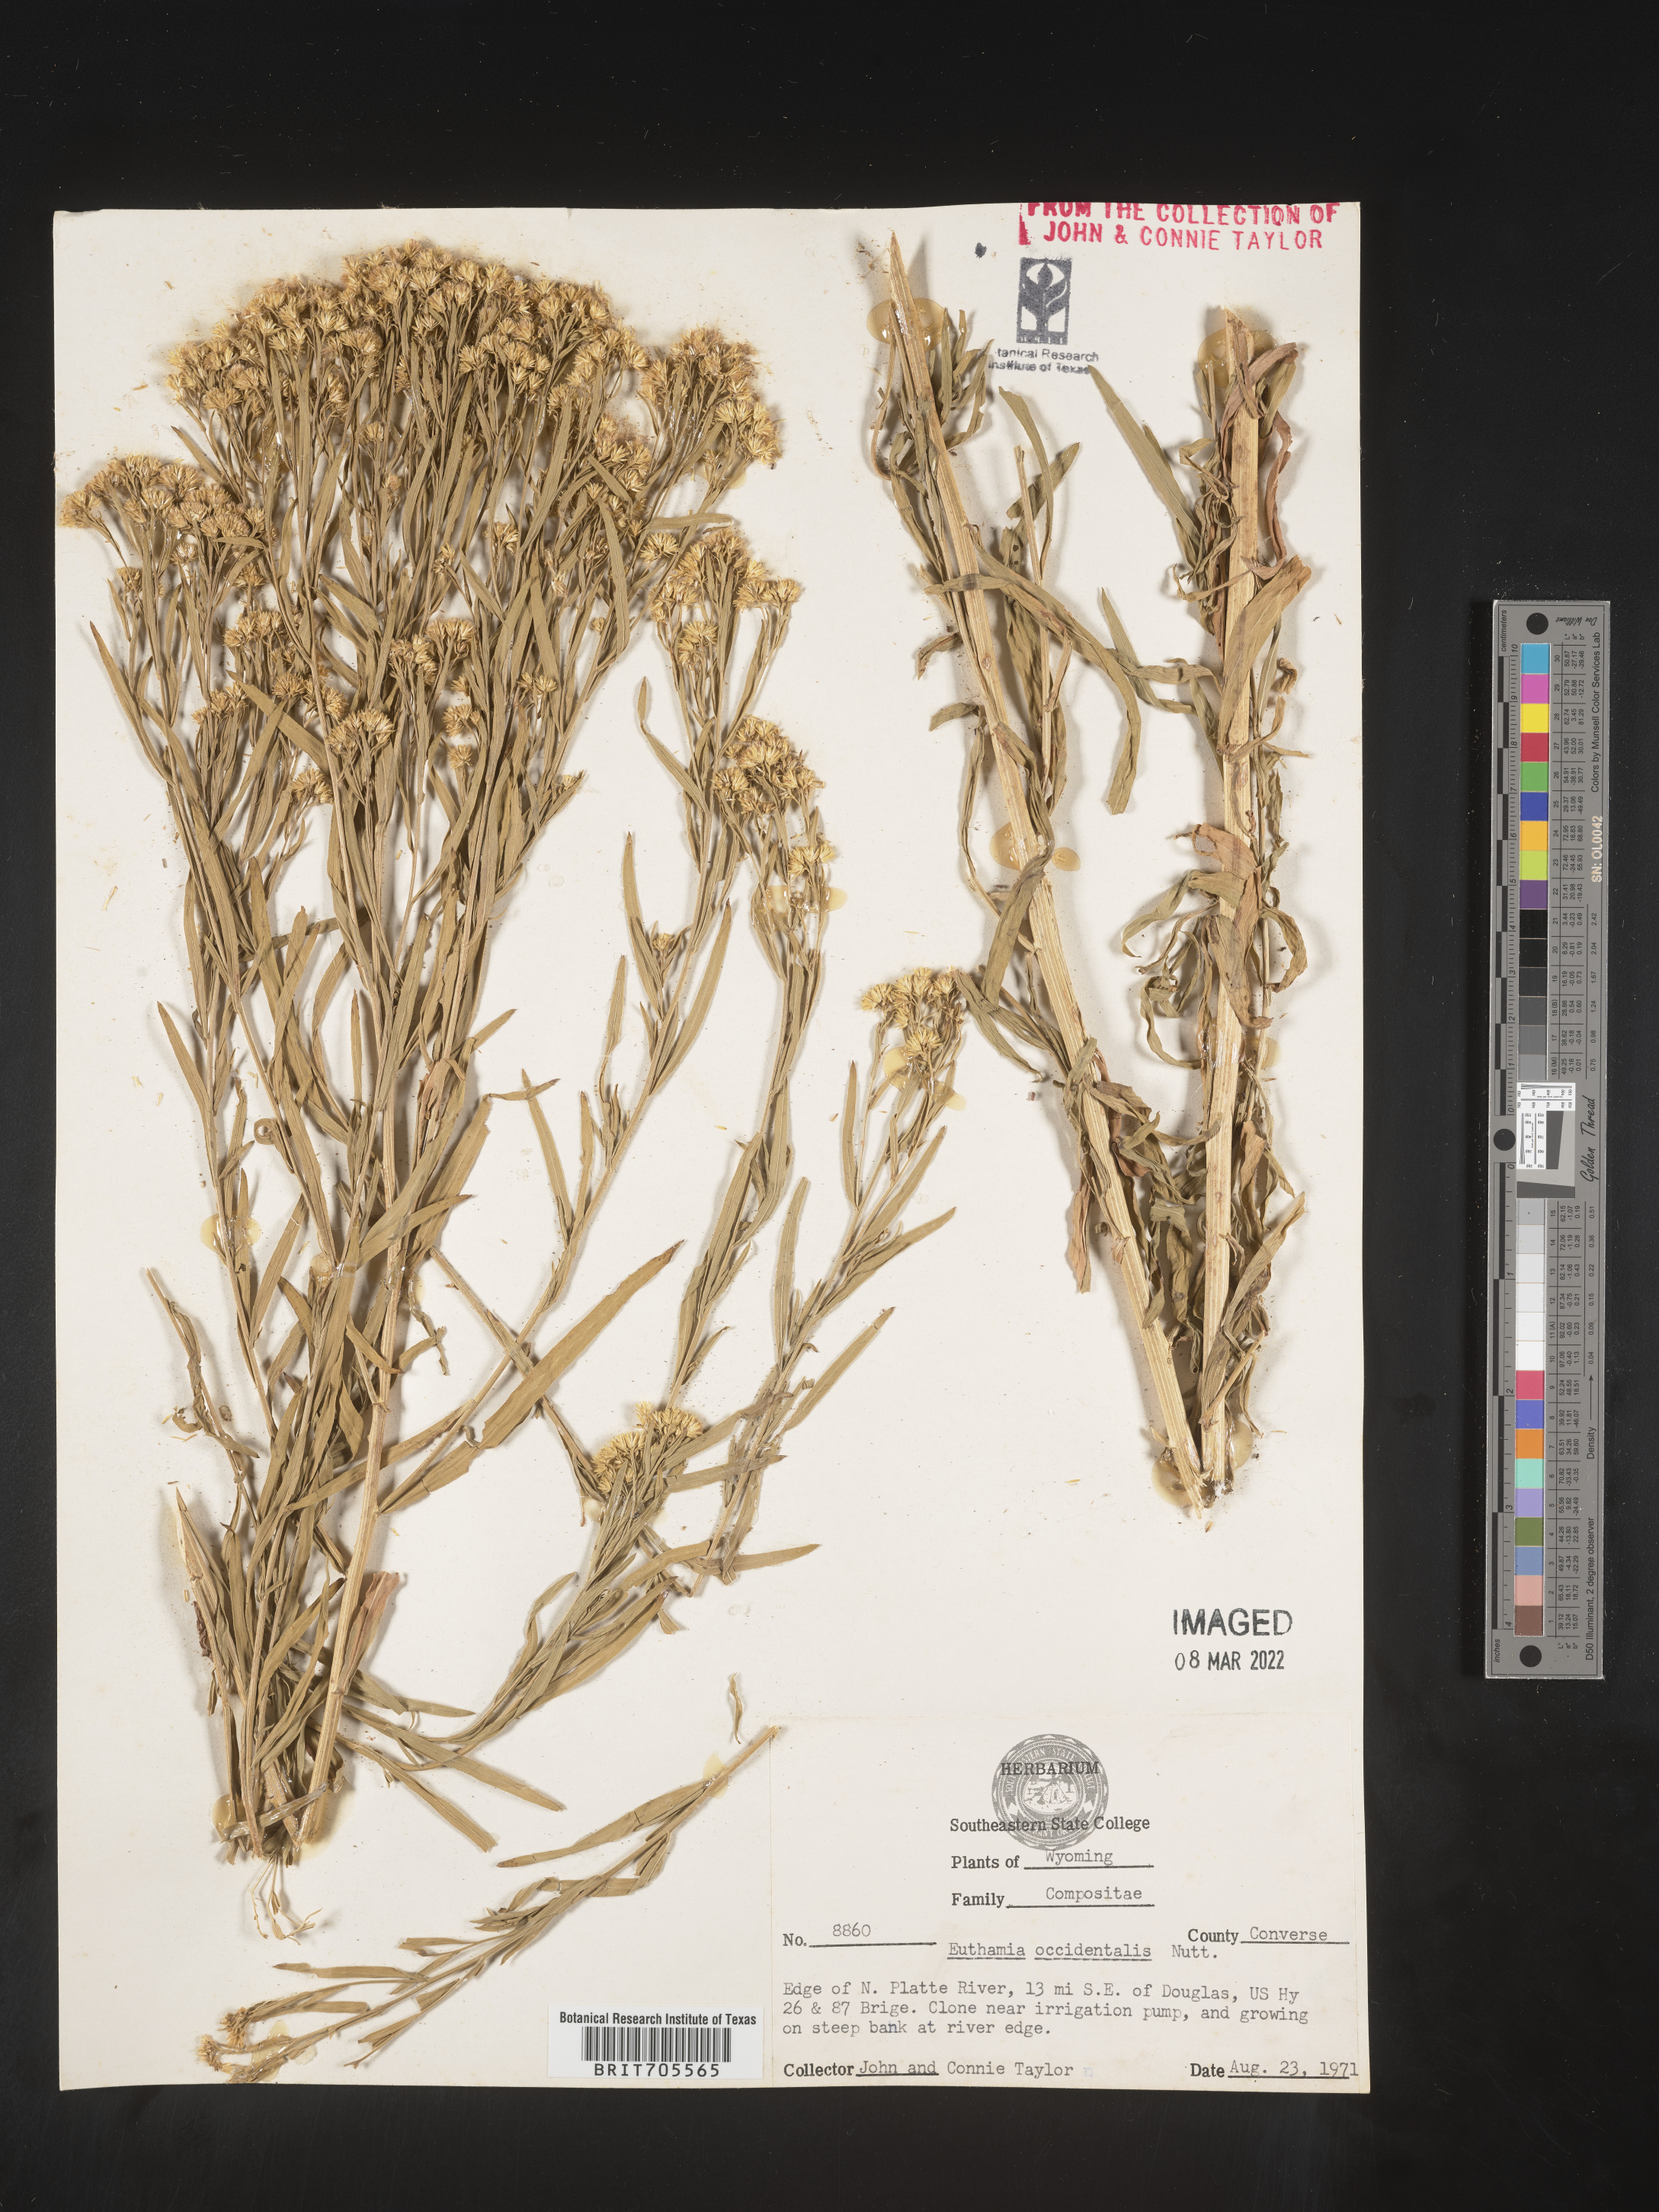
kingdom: Plantae
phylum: Tracheophyta
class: Magnoliopsida
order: Asterales
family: Asteraceae
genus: Euthamia
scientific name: Euthamia occidentalis
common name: Western goldentop
